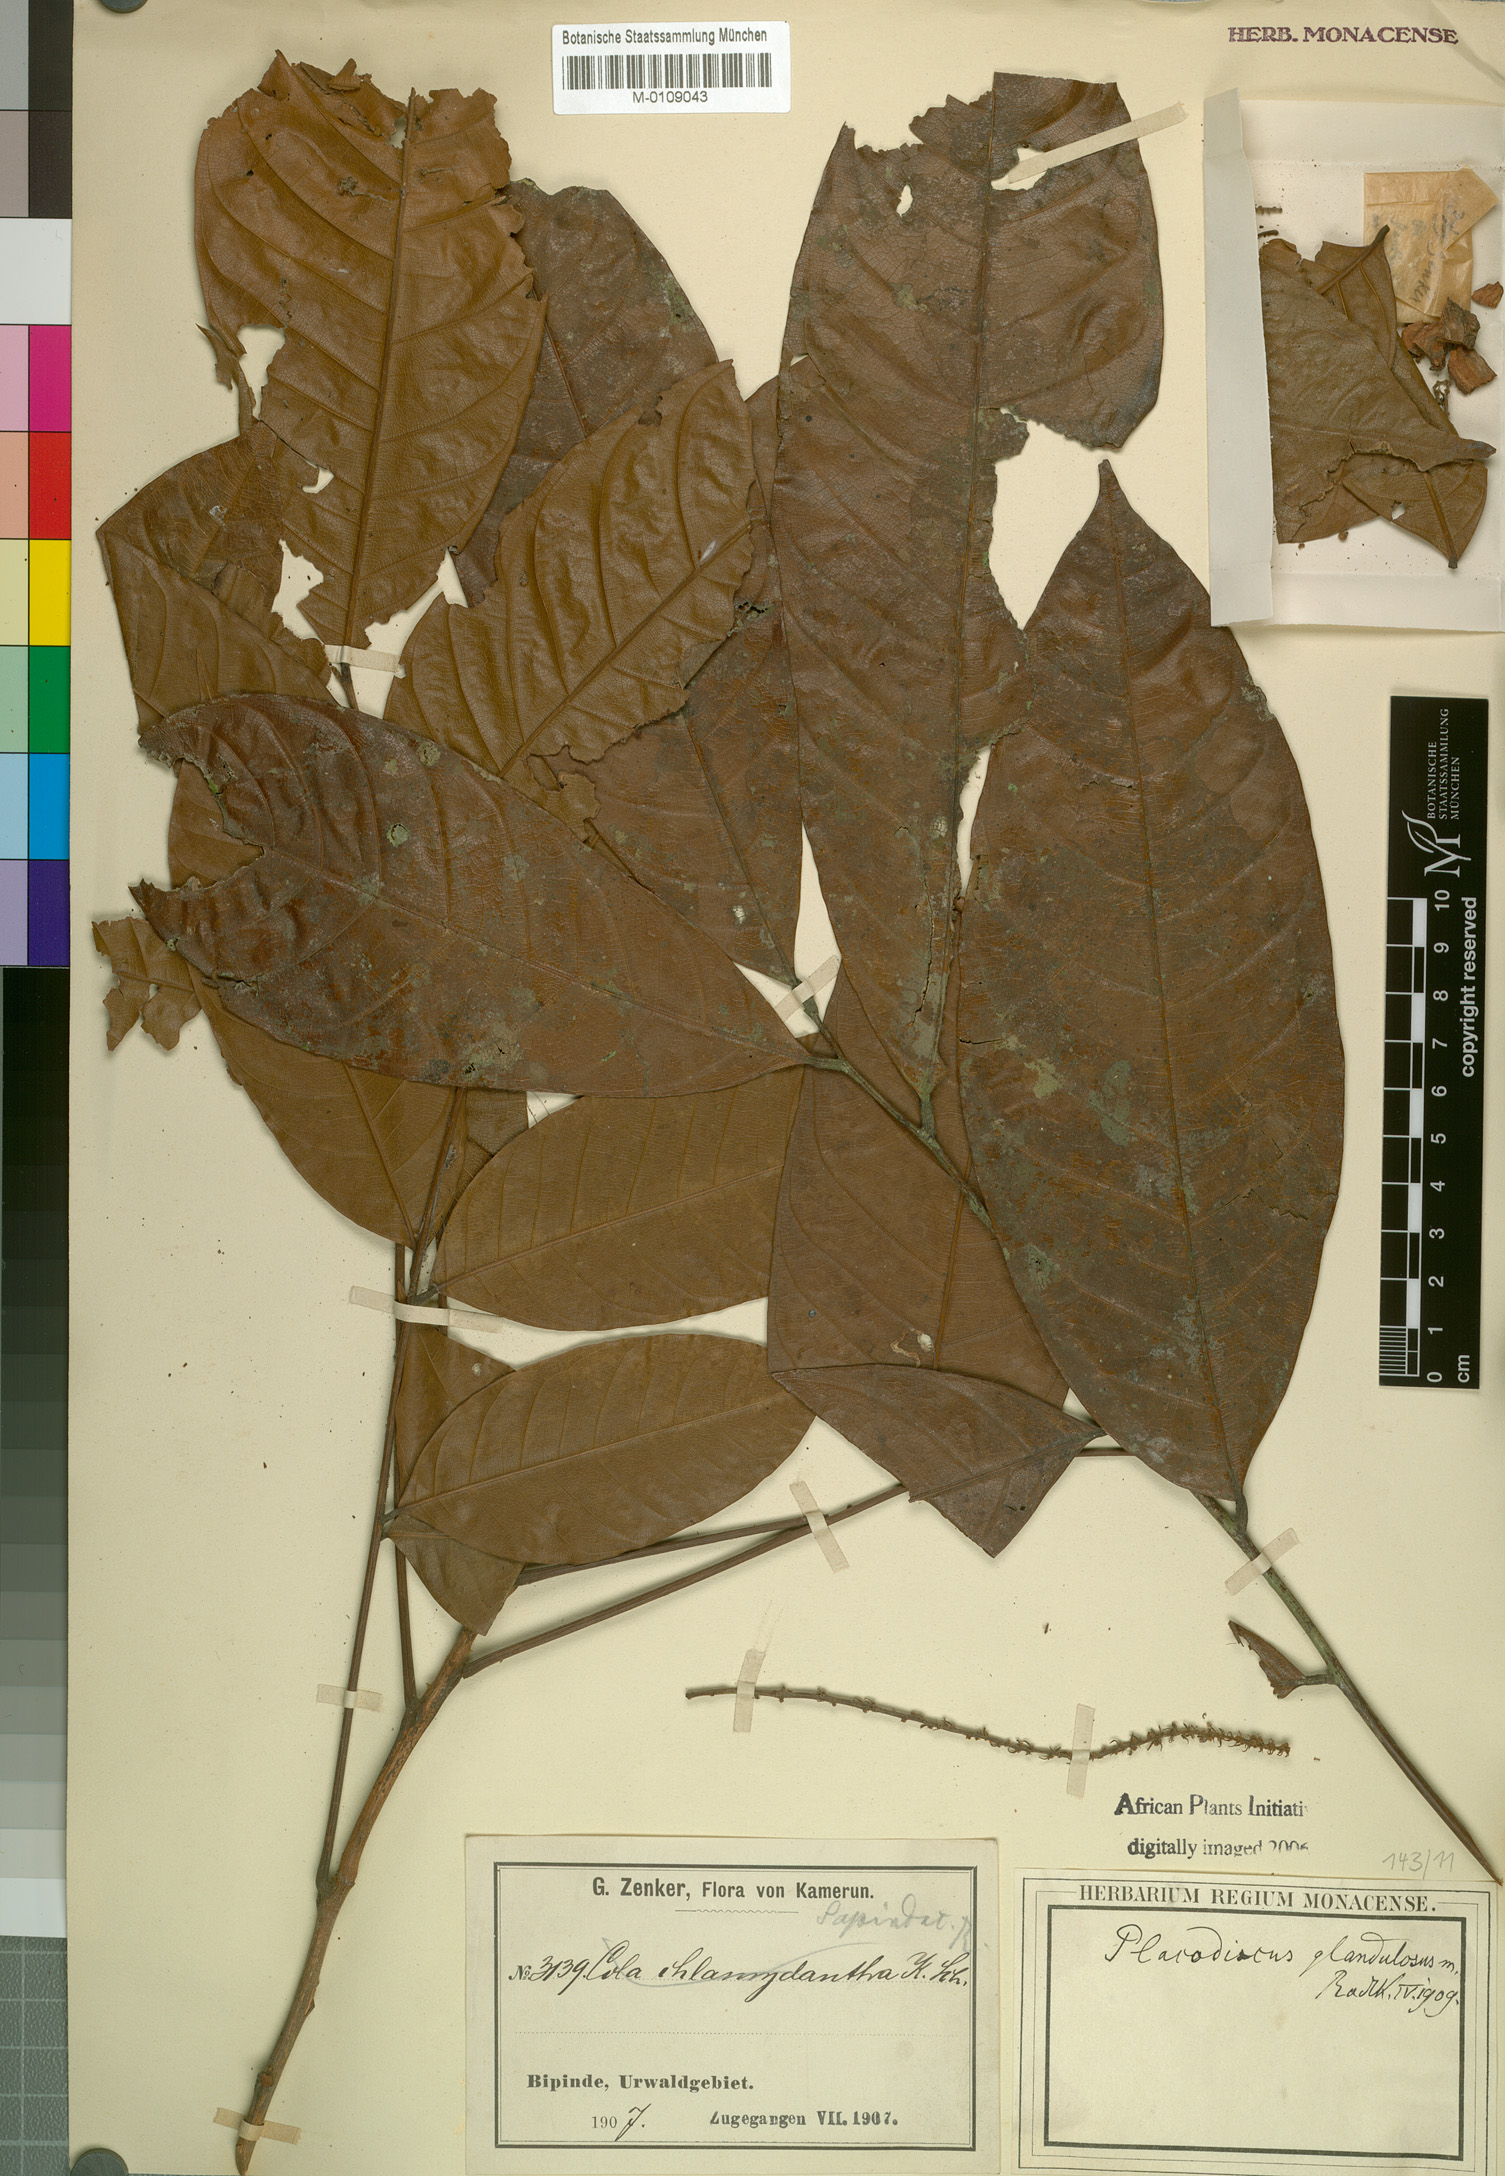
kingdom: Plantae
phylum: Tracheophyta
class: Magnoliopsida
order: Sapindales
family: Sapindaceae
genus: Placodiscus
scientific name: Placodiscus glandulosus
